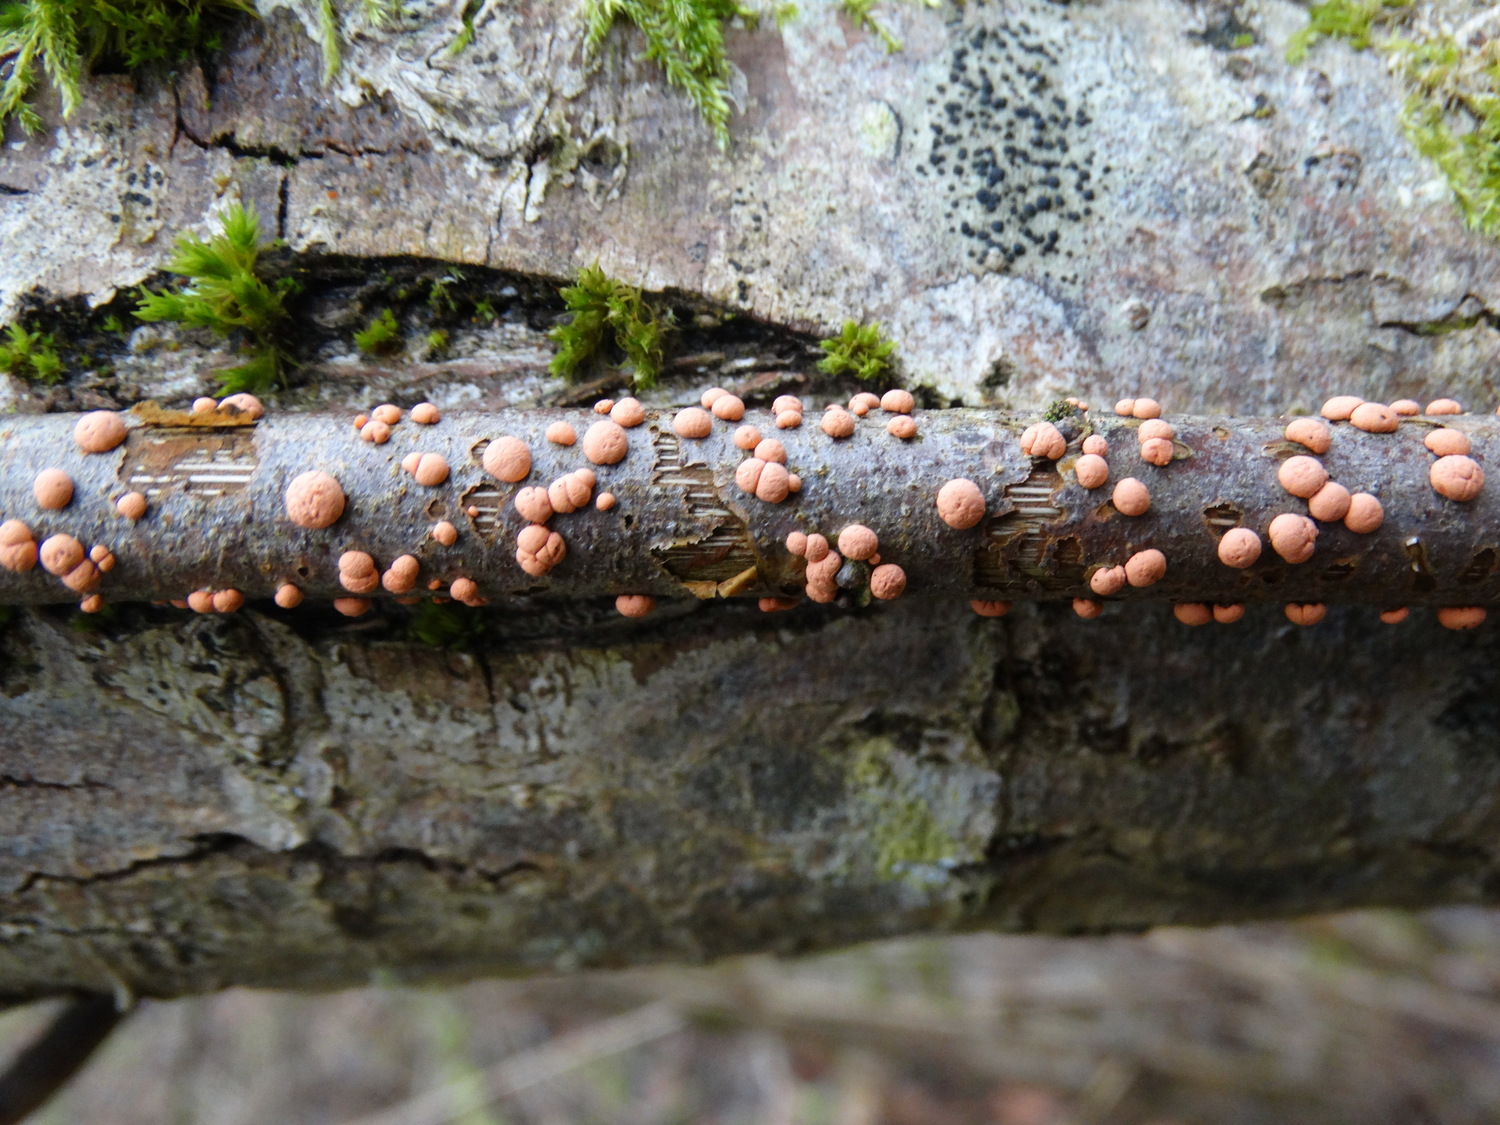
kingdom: Fungi
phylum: Ascomycota
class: Sordariomycetes
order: Hypocreales
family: Nectriaceae
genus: Nectria
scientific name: Nectria cinnabarina
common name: almindelig cinnobersvamp
